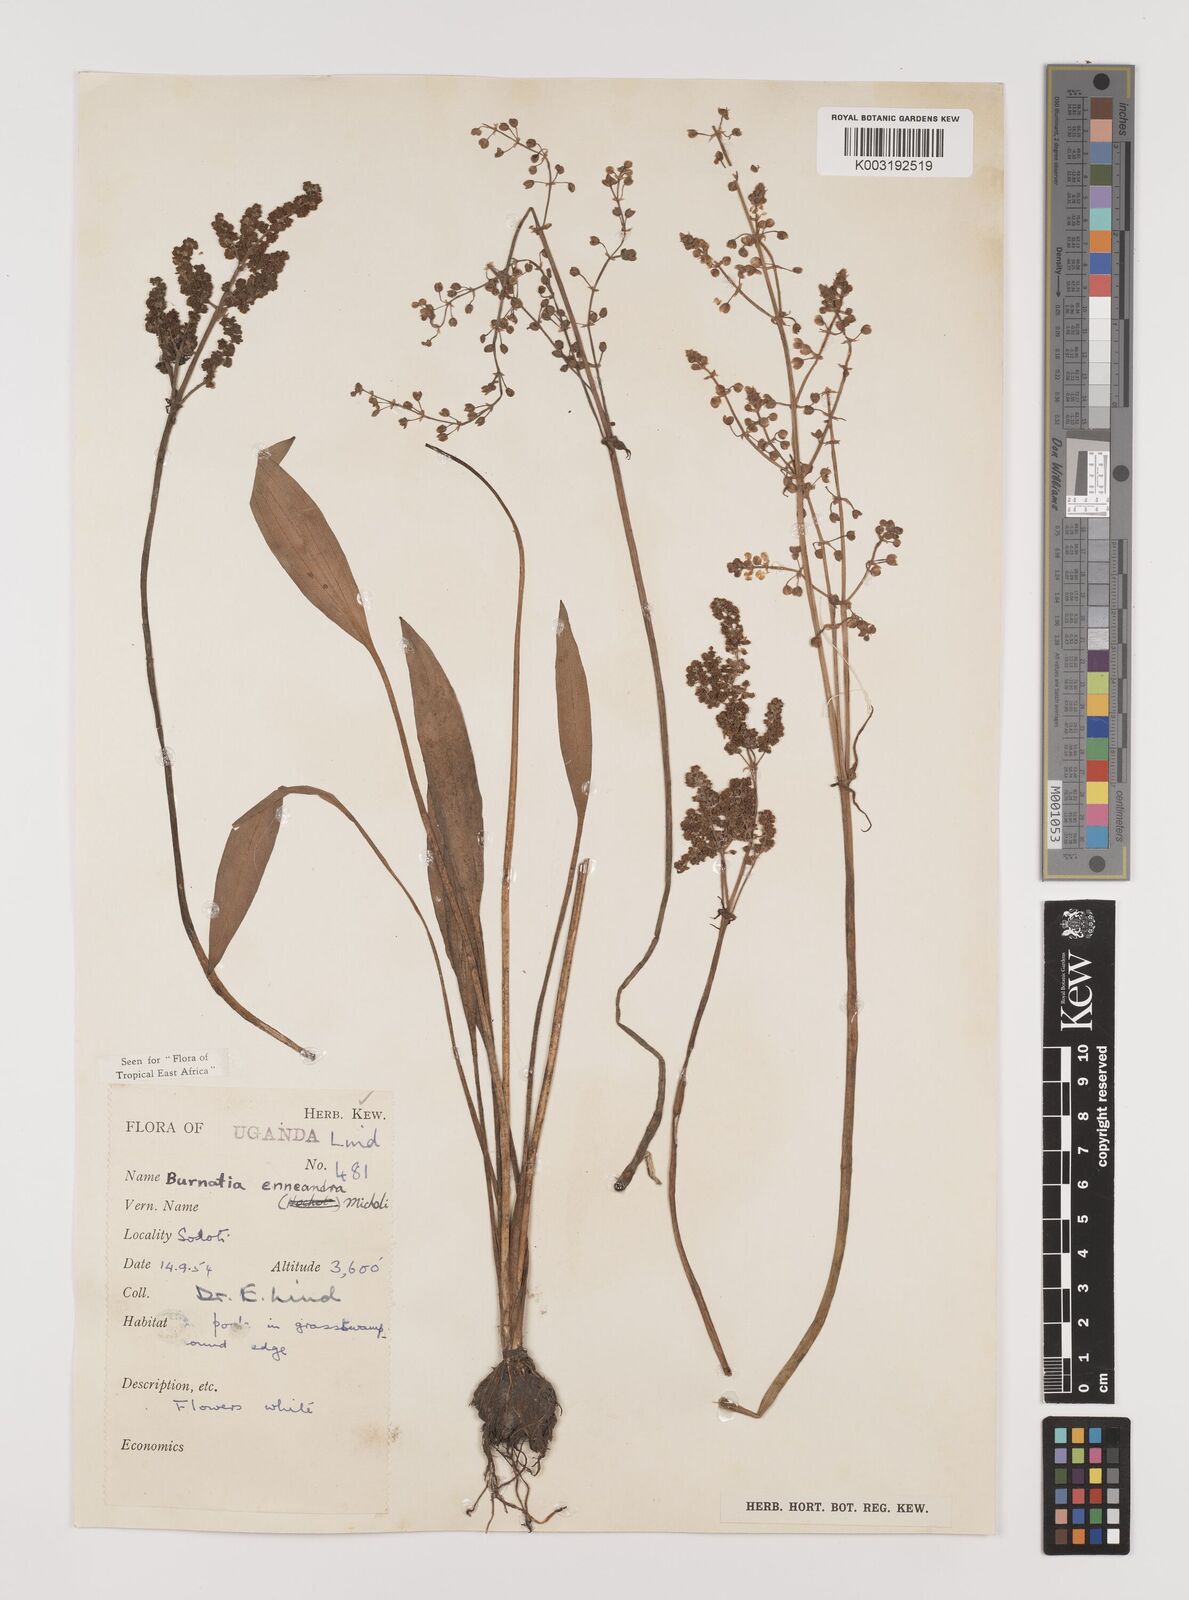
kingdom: Plantae
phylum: Tracheophyta
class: Liliopsida
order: Alismatales
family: Alismataceae
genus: Burnatia
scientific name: Burnatia enneandra
